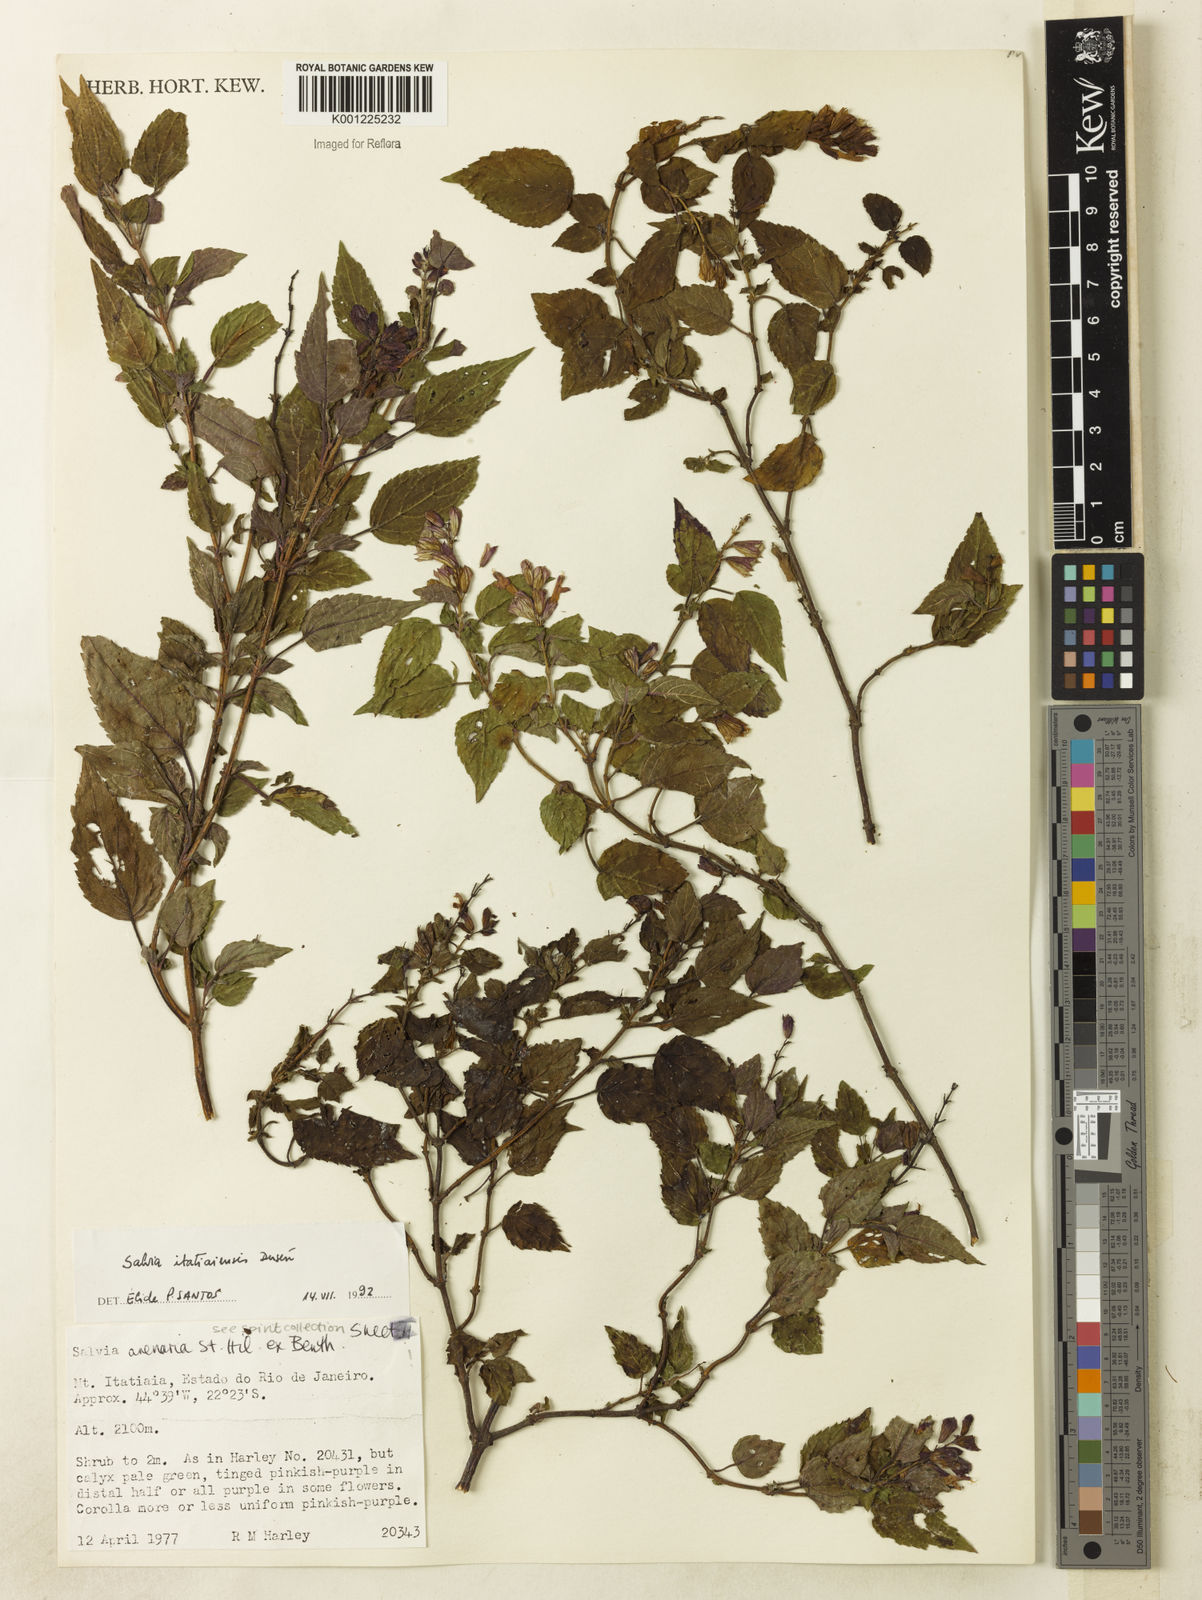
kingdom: Plantae
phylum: Tracheophyta
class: Magnoliopsida
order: Lamiales
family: Lamiaceae
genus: Salvia
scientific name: Salvia
